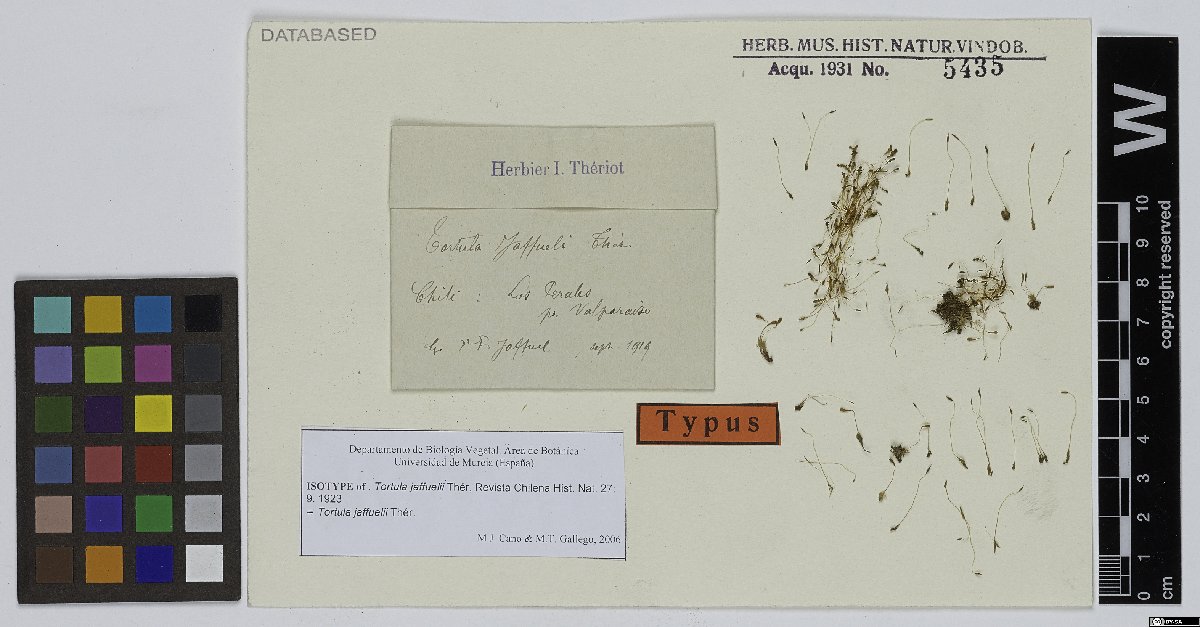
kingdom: Plantae
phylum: Bryophyta
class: Bryopsida
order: Pottiales
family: Pottiaceae
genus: Pseudocrossidium
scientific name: Pseudocrossidium jaffuelii
